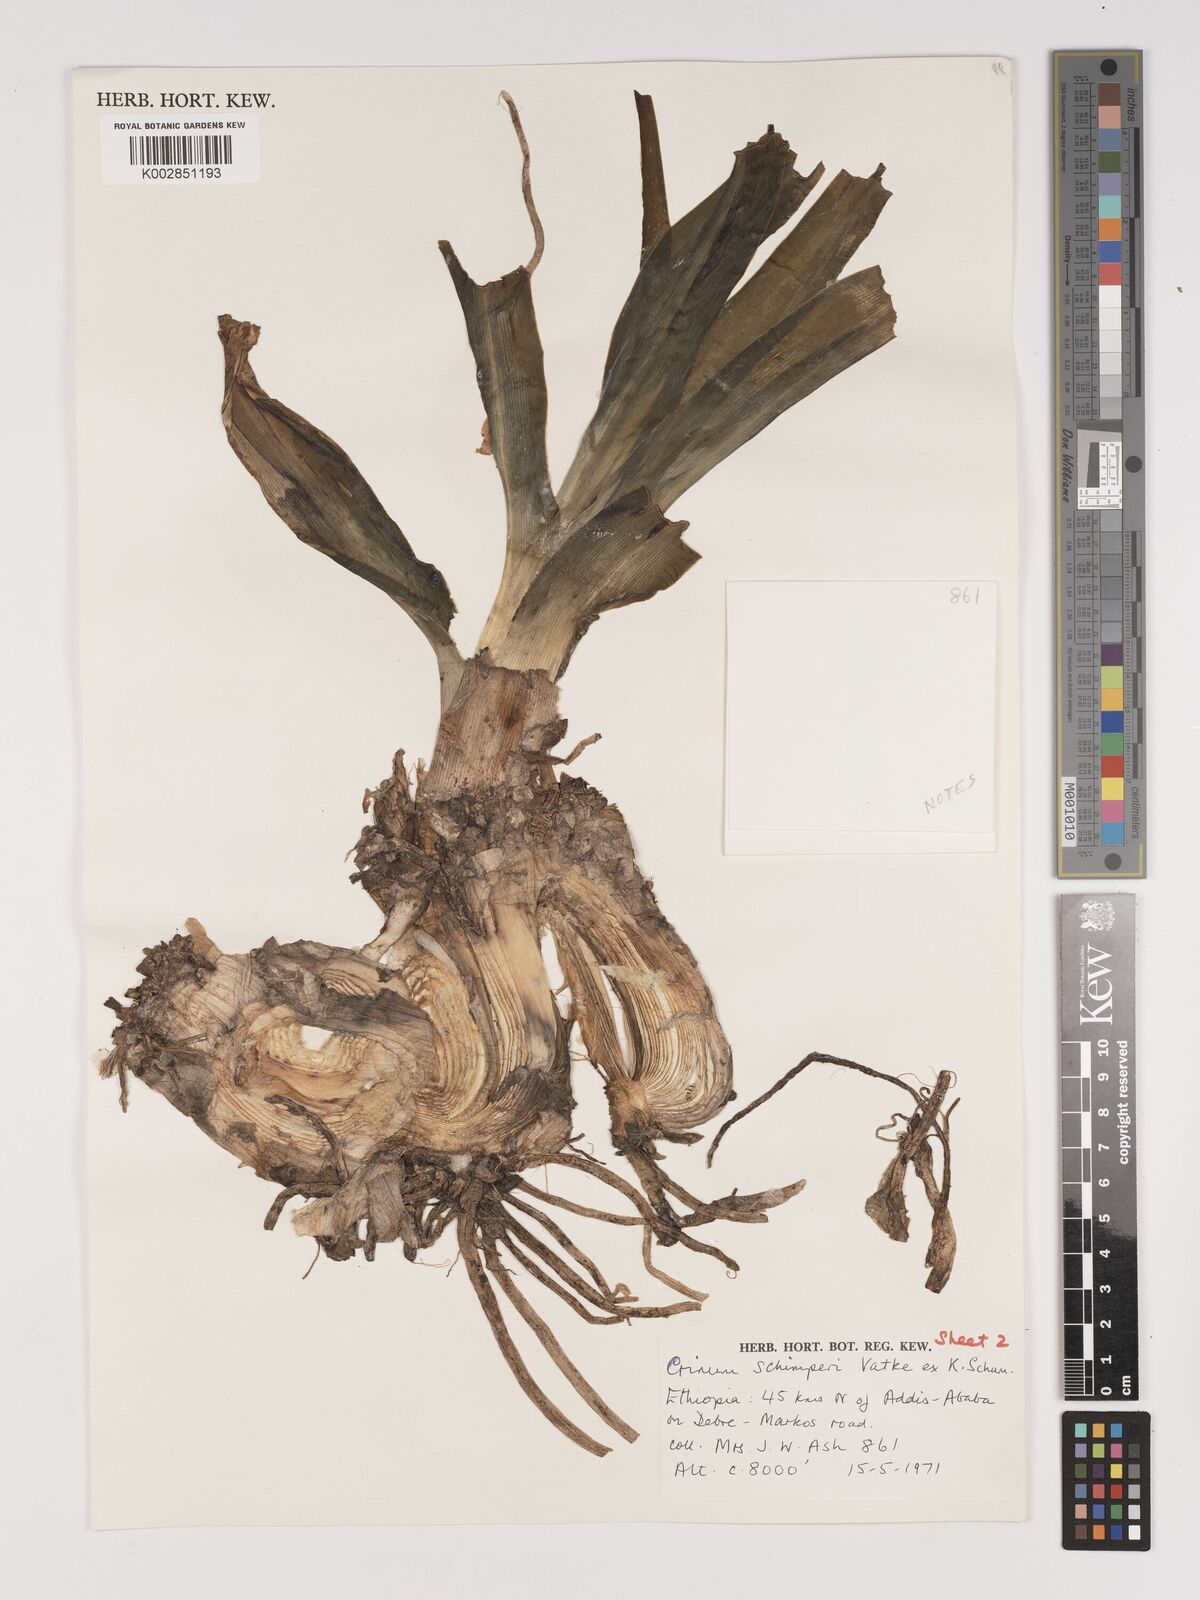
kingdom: Plantae
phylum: Tracheophyta
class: Liliopsida
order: Asparagales
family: Amaryllidaceae
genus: Crinum
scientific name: Crinum abyssinicum
